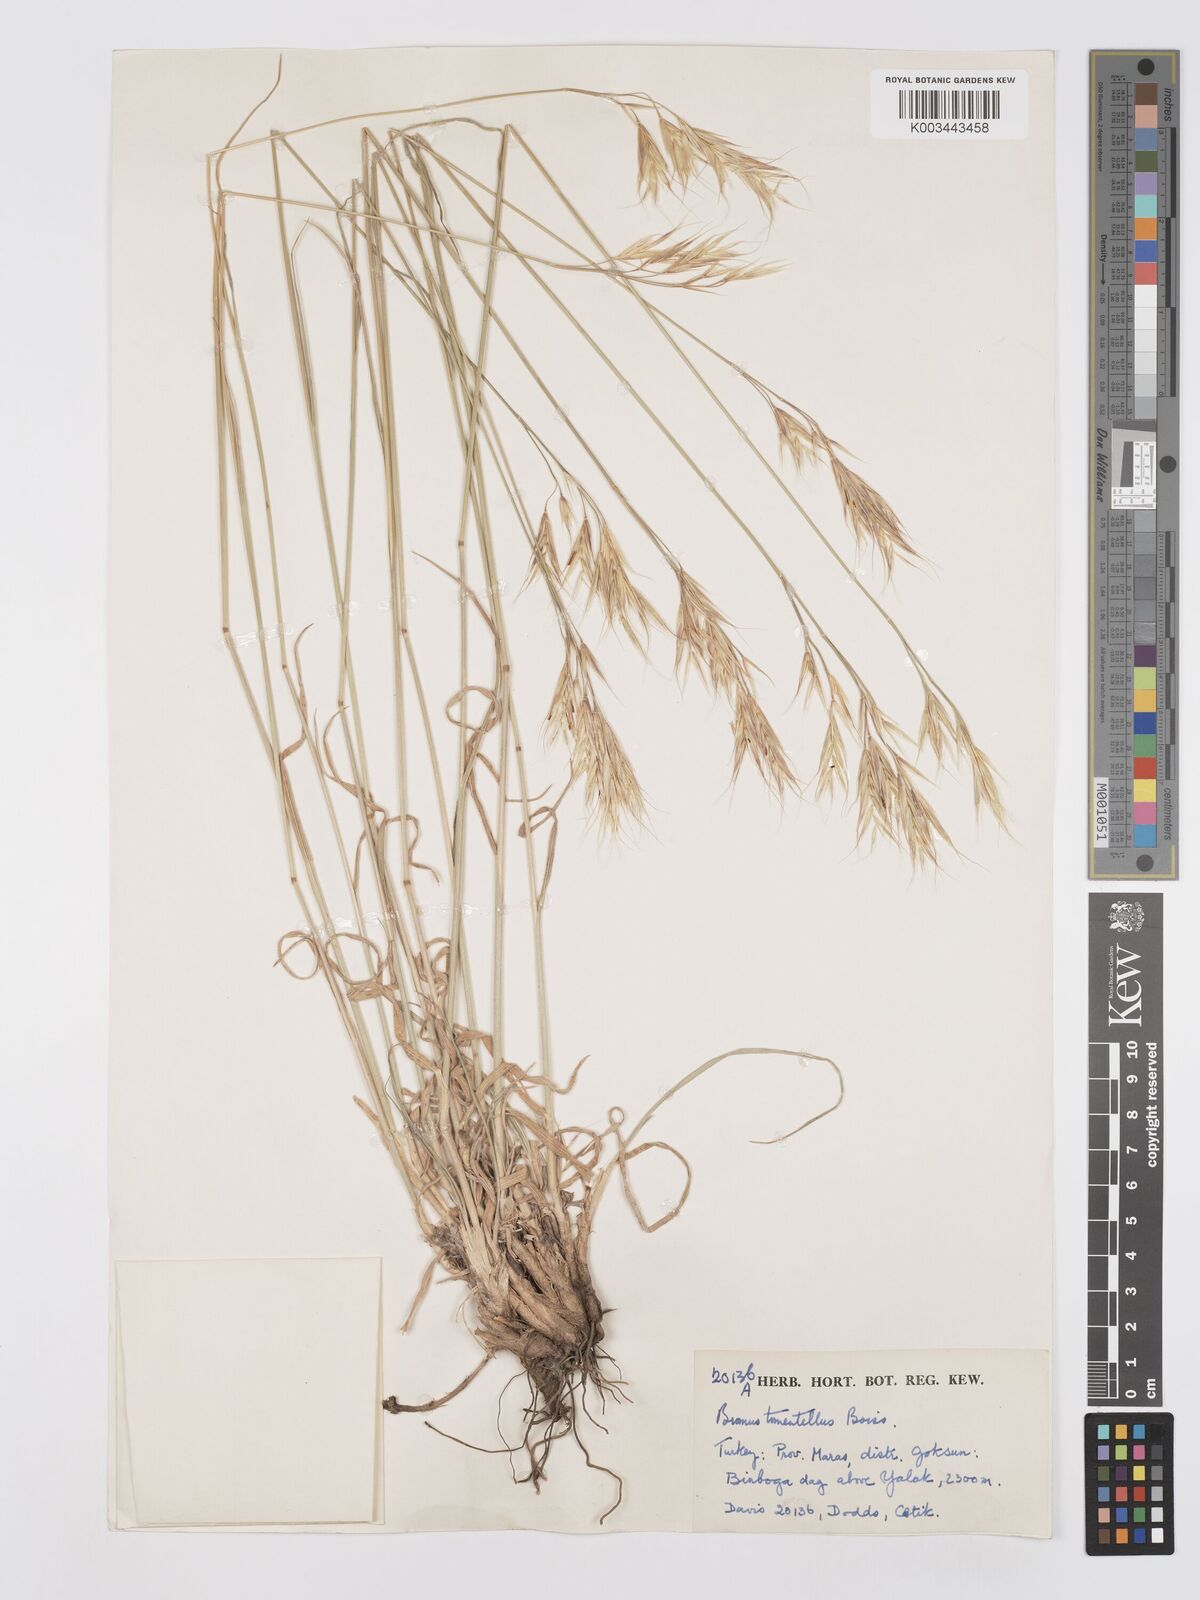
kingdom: Plantae
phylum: Tracheophyta
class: Liliopsida
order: Poales
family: Poaceae
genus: Bromus
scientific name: Bromus tomentellus
